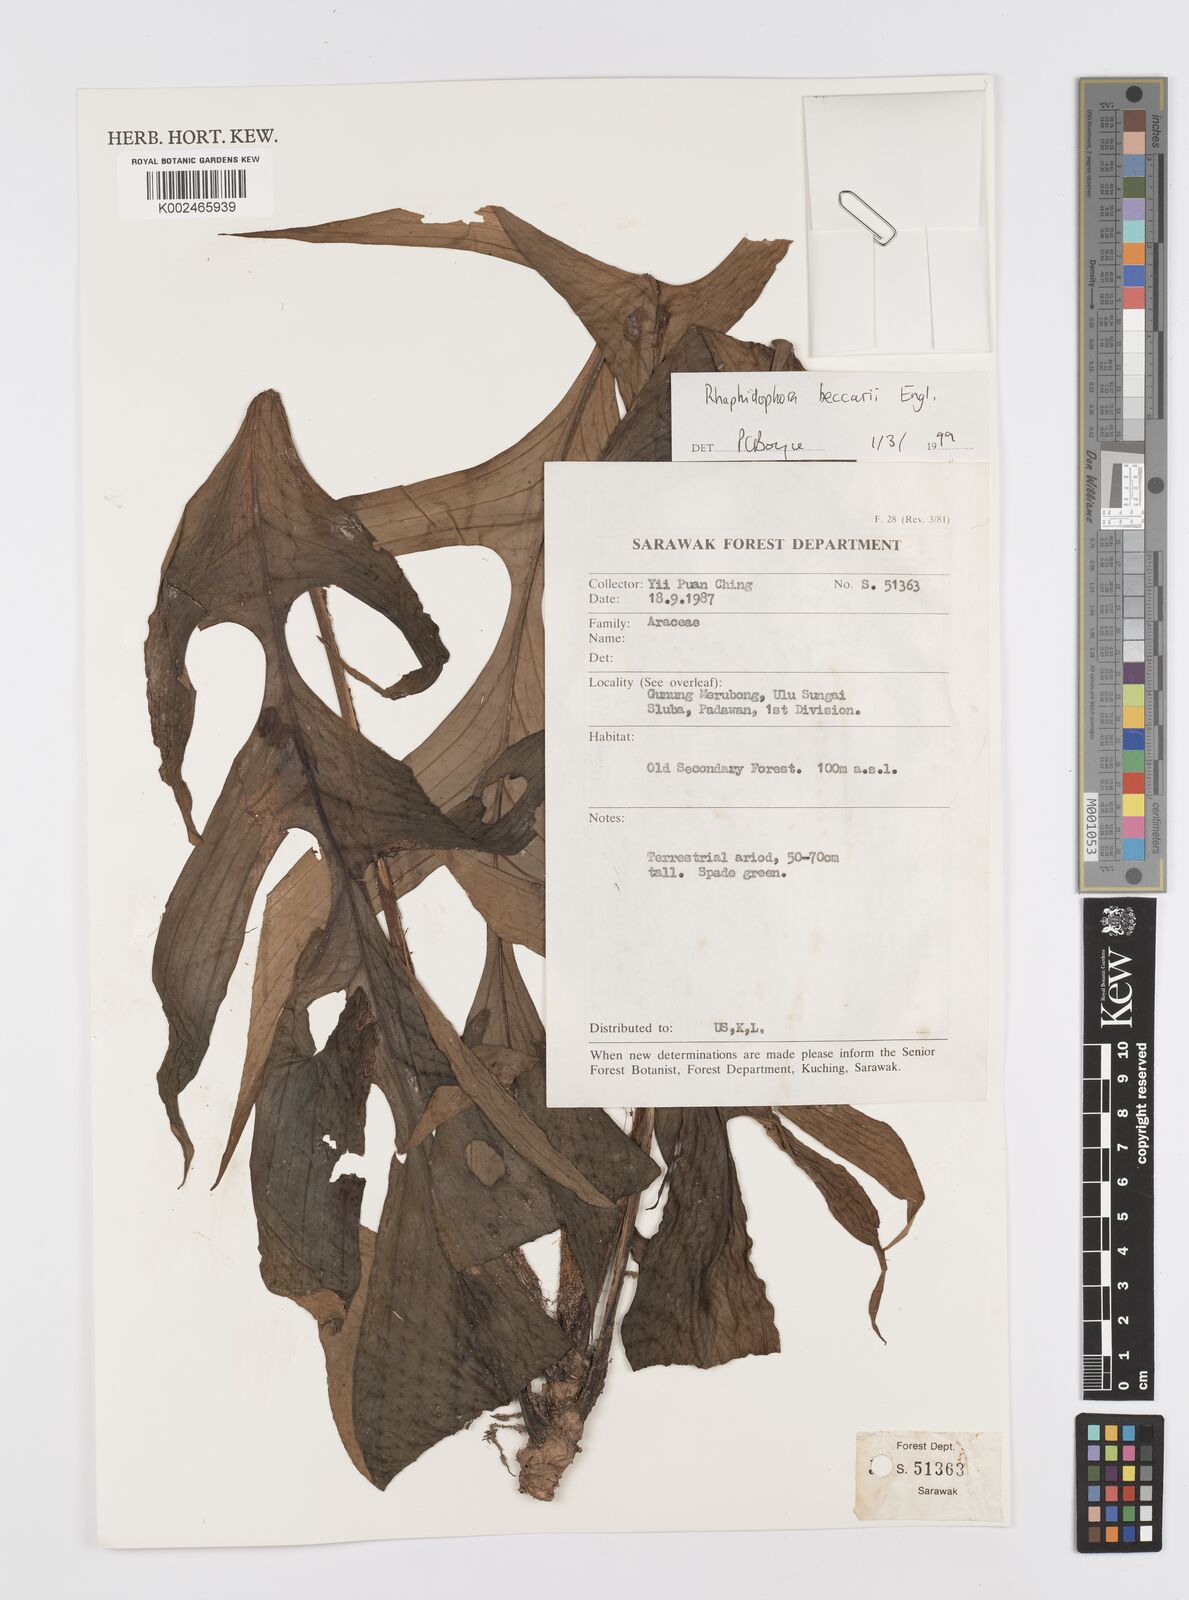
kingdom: Plantae
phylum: Tracheophyta
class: Liliopsida
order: Alismatales
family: Araceae
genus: Rhaphidophora
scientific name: Rhaphidophora beccarii
